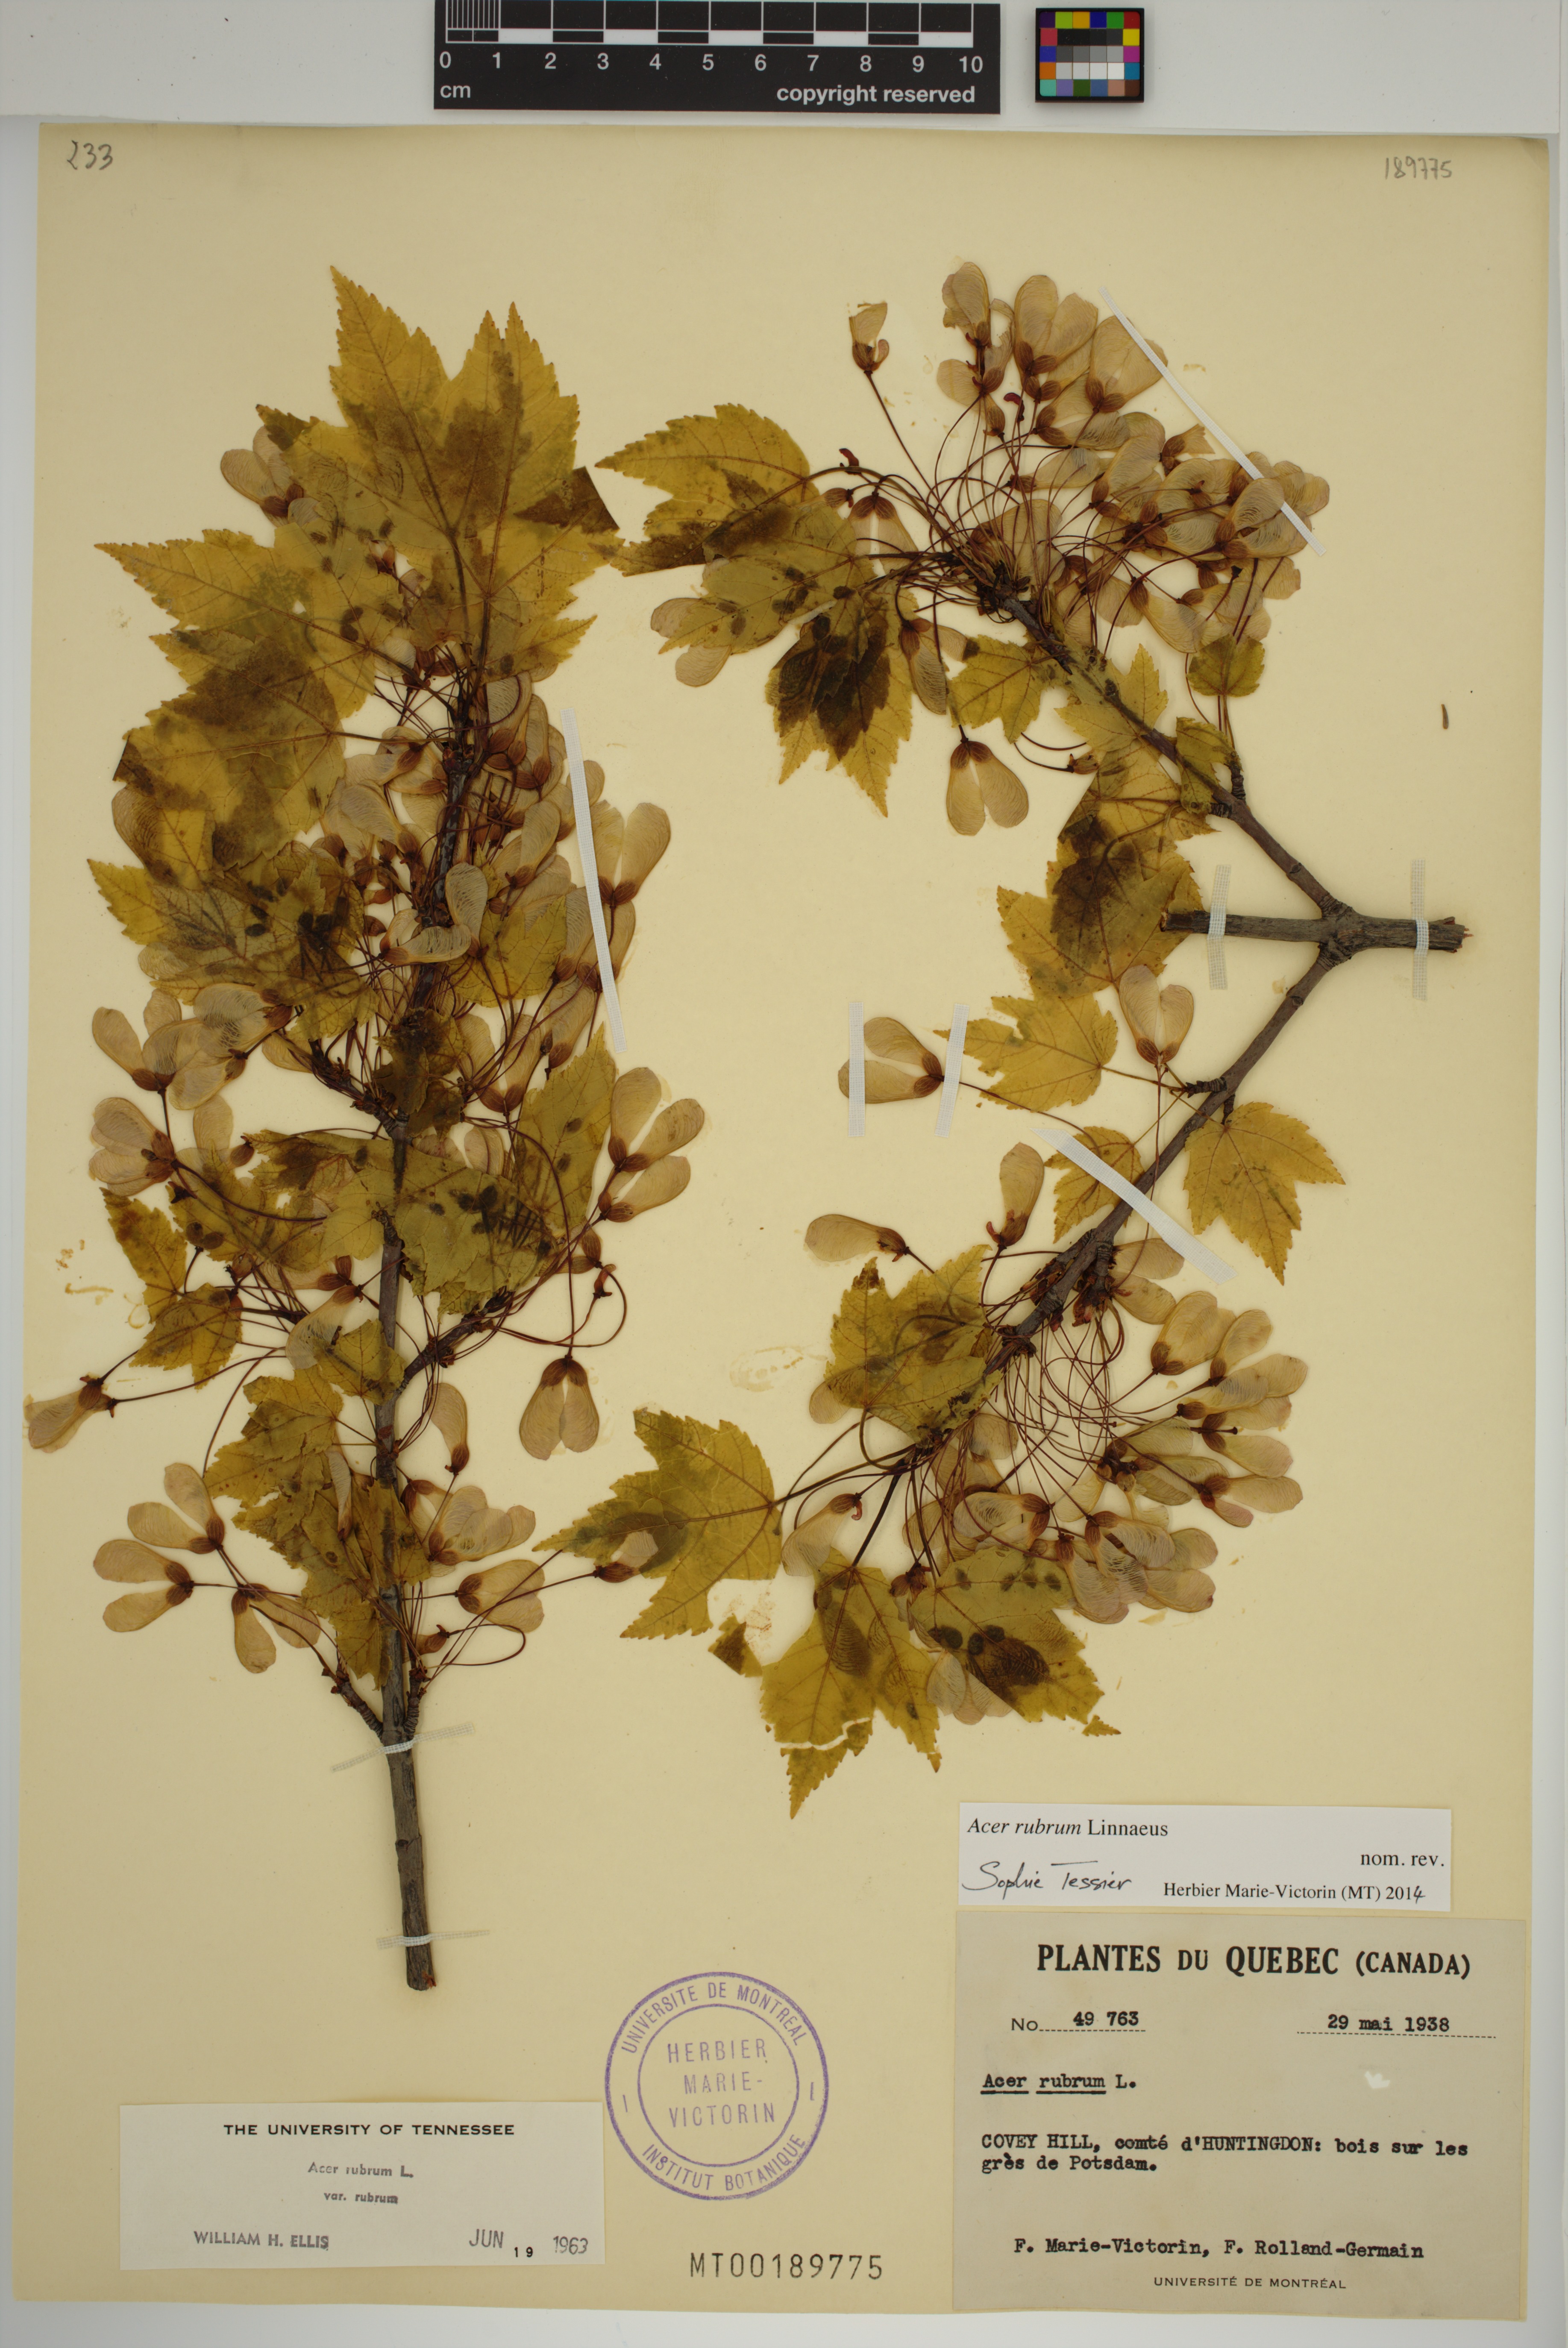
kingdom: Plantae
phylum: Tracheophyta
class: Magnoliopsida
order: Sapindales
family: Sapindaceae
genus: Acer
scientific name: Acer rubrum
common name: Red maple
